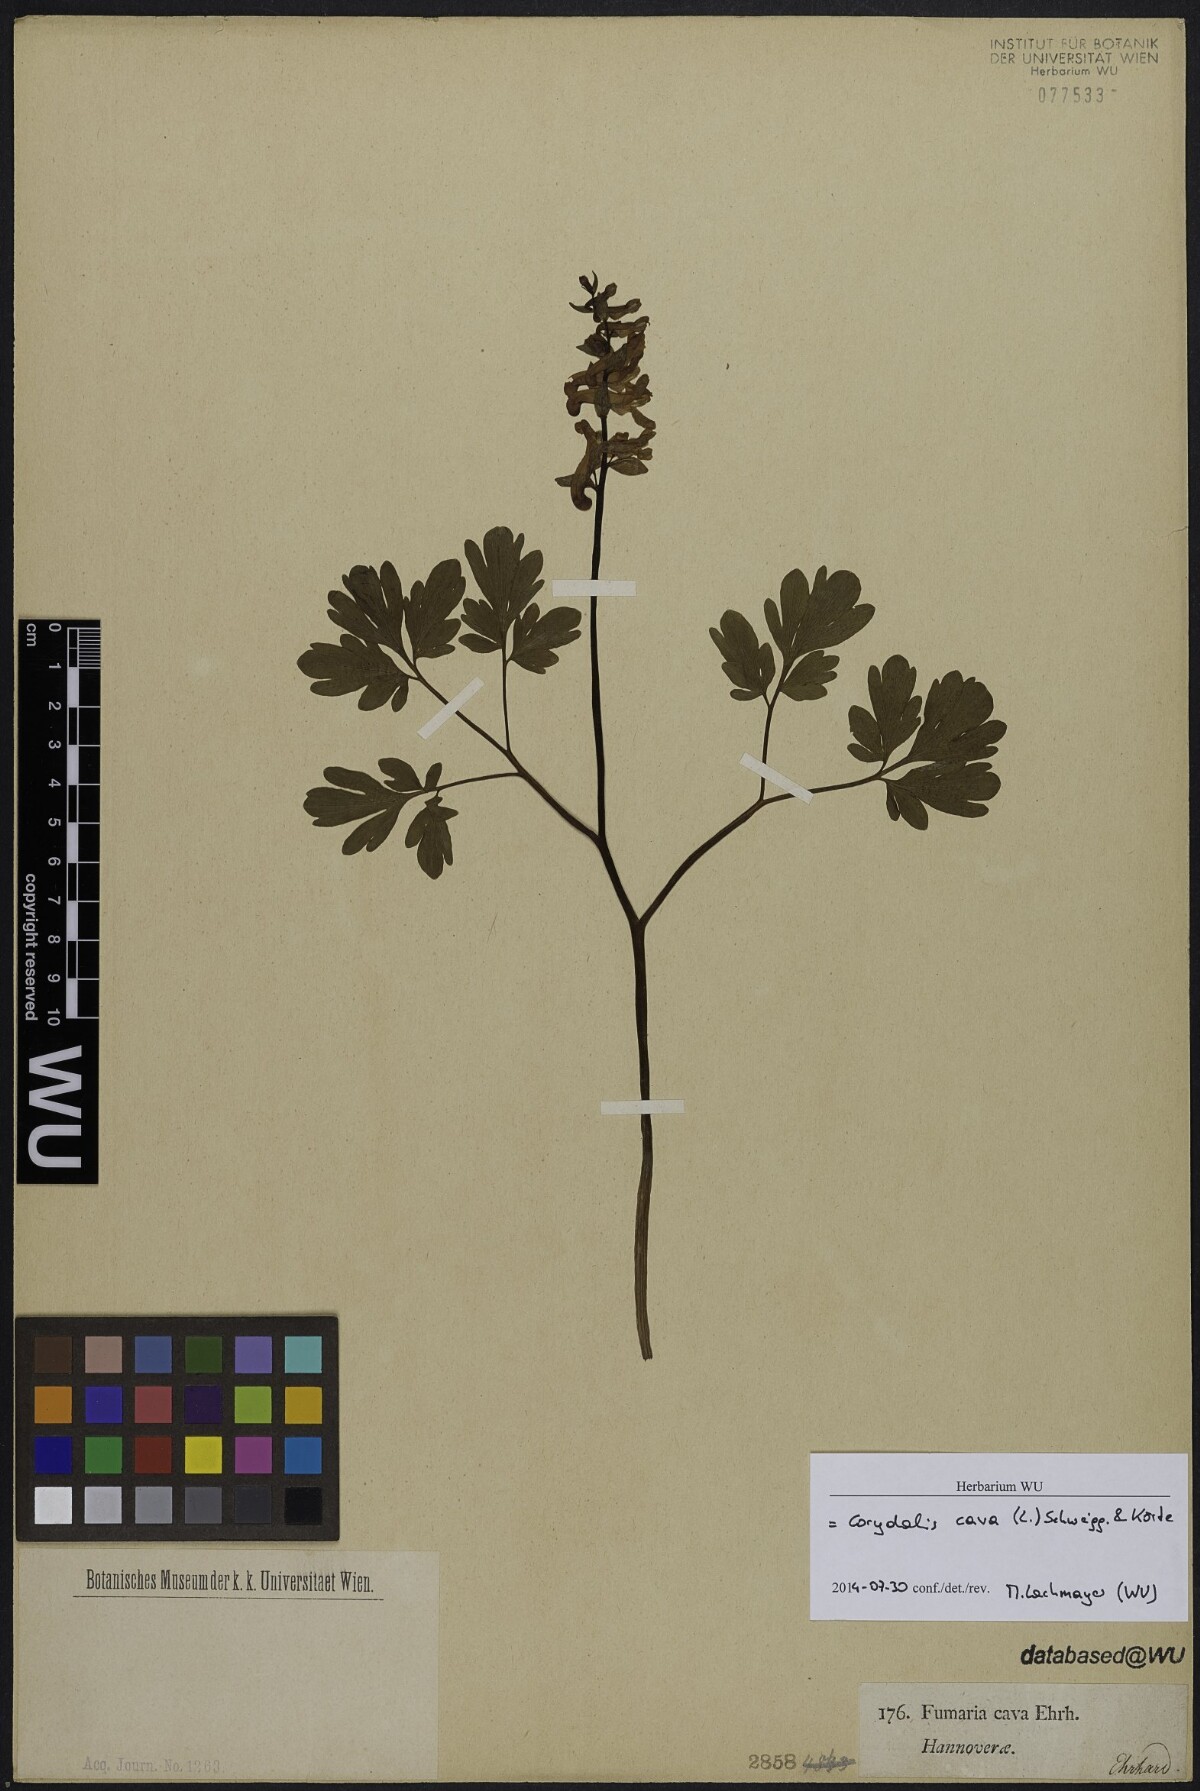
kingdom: Plantae
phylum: Tracheophyta
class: Magnoliopsida
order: Ranunculales
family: Papaveraceae
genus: Corydalis
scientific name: Corydalis cava
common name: Hollowroot
